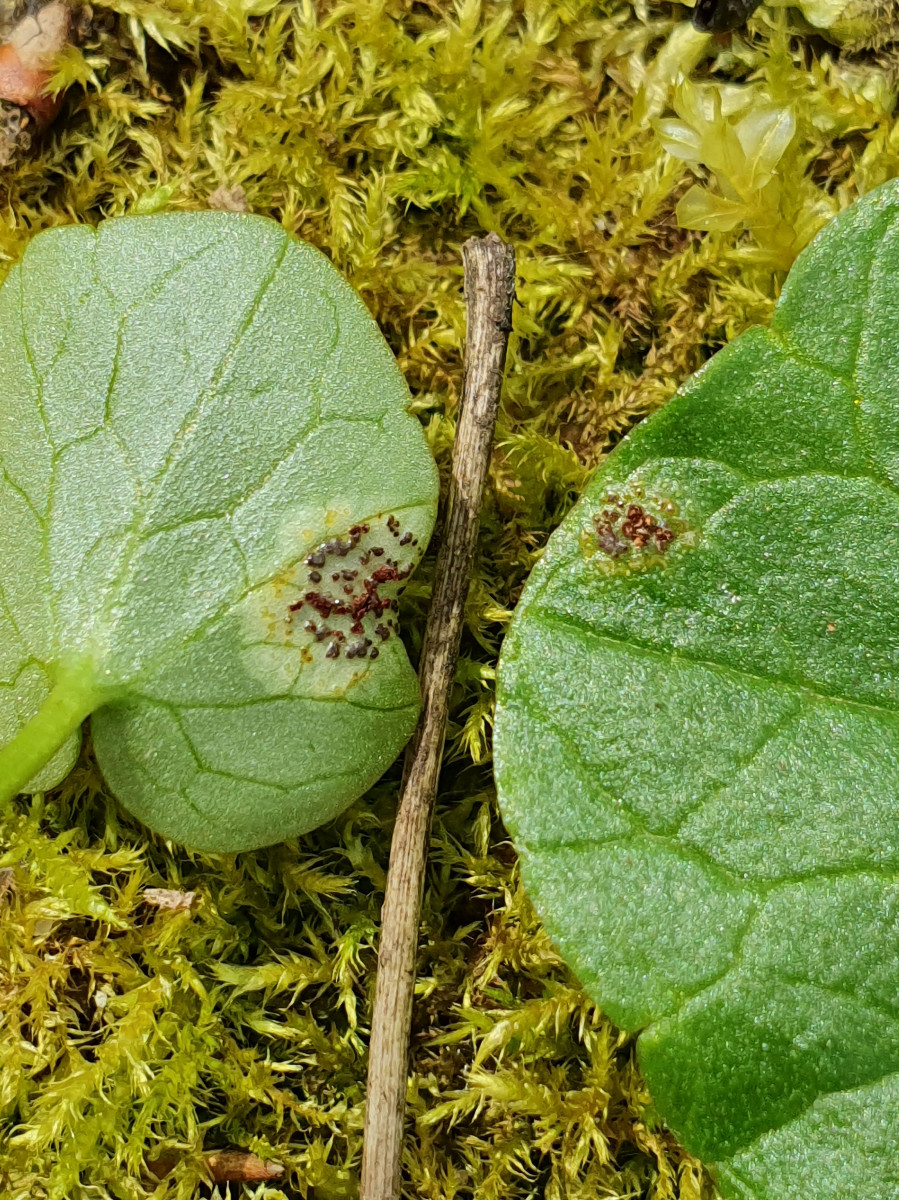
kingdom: Fungi
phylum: Basidiomycota
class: Pucciniomycetes
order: Pucciniales
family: Pucciniaceae
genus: Uromyces
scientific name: Uromyces ficariae
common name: vorterod-encellerust
